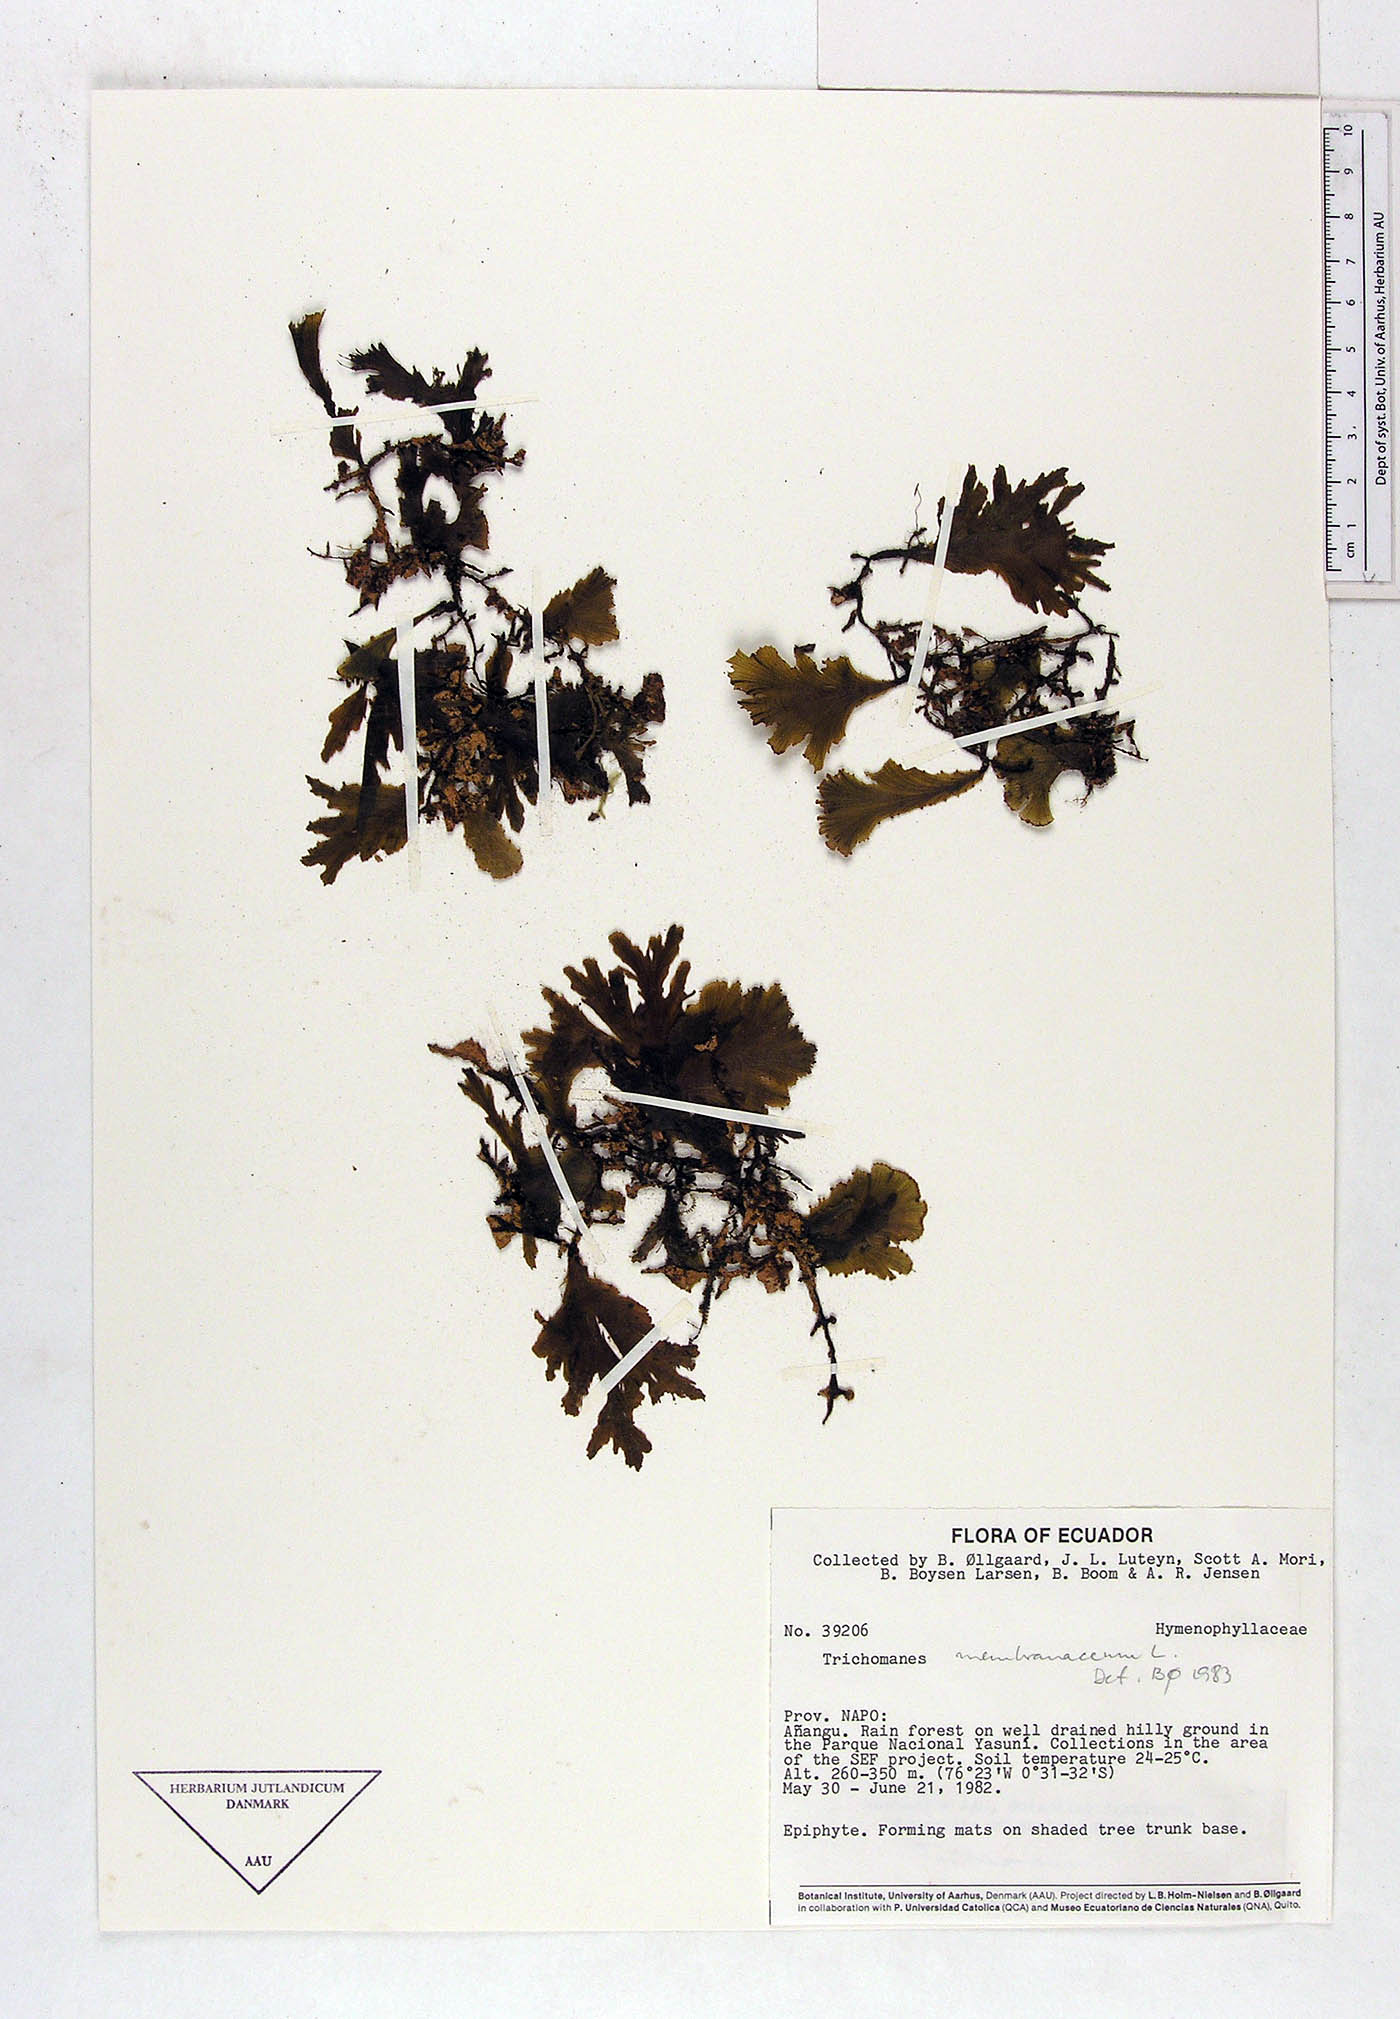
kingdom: Plantae
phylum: Tracheophyta
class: Polypodiopsida
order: Hymenophyllales
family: Hymenophyllaceae
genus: Didymoglossum
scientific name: Didymoglossum membranaceum
